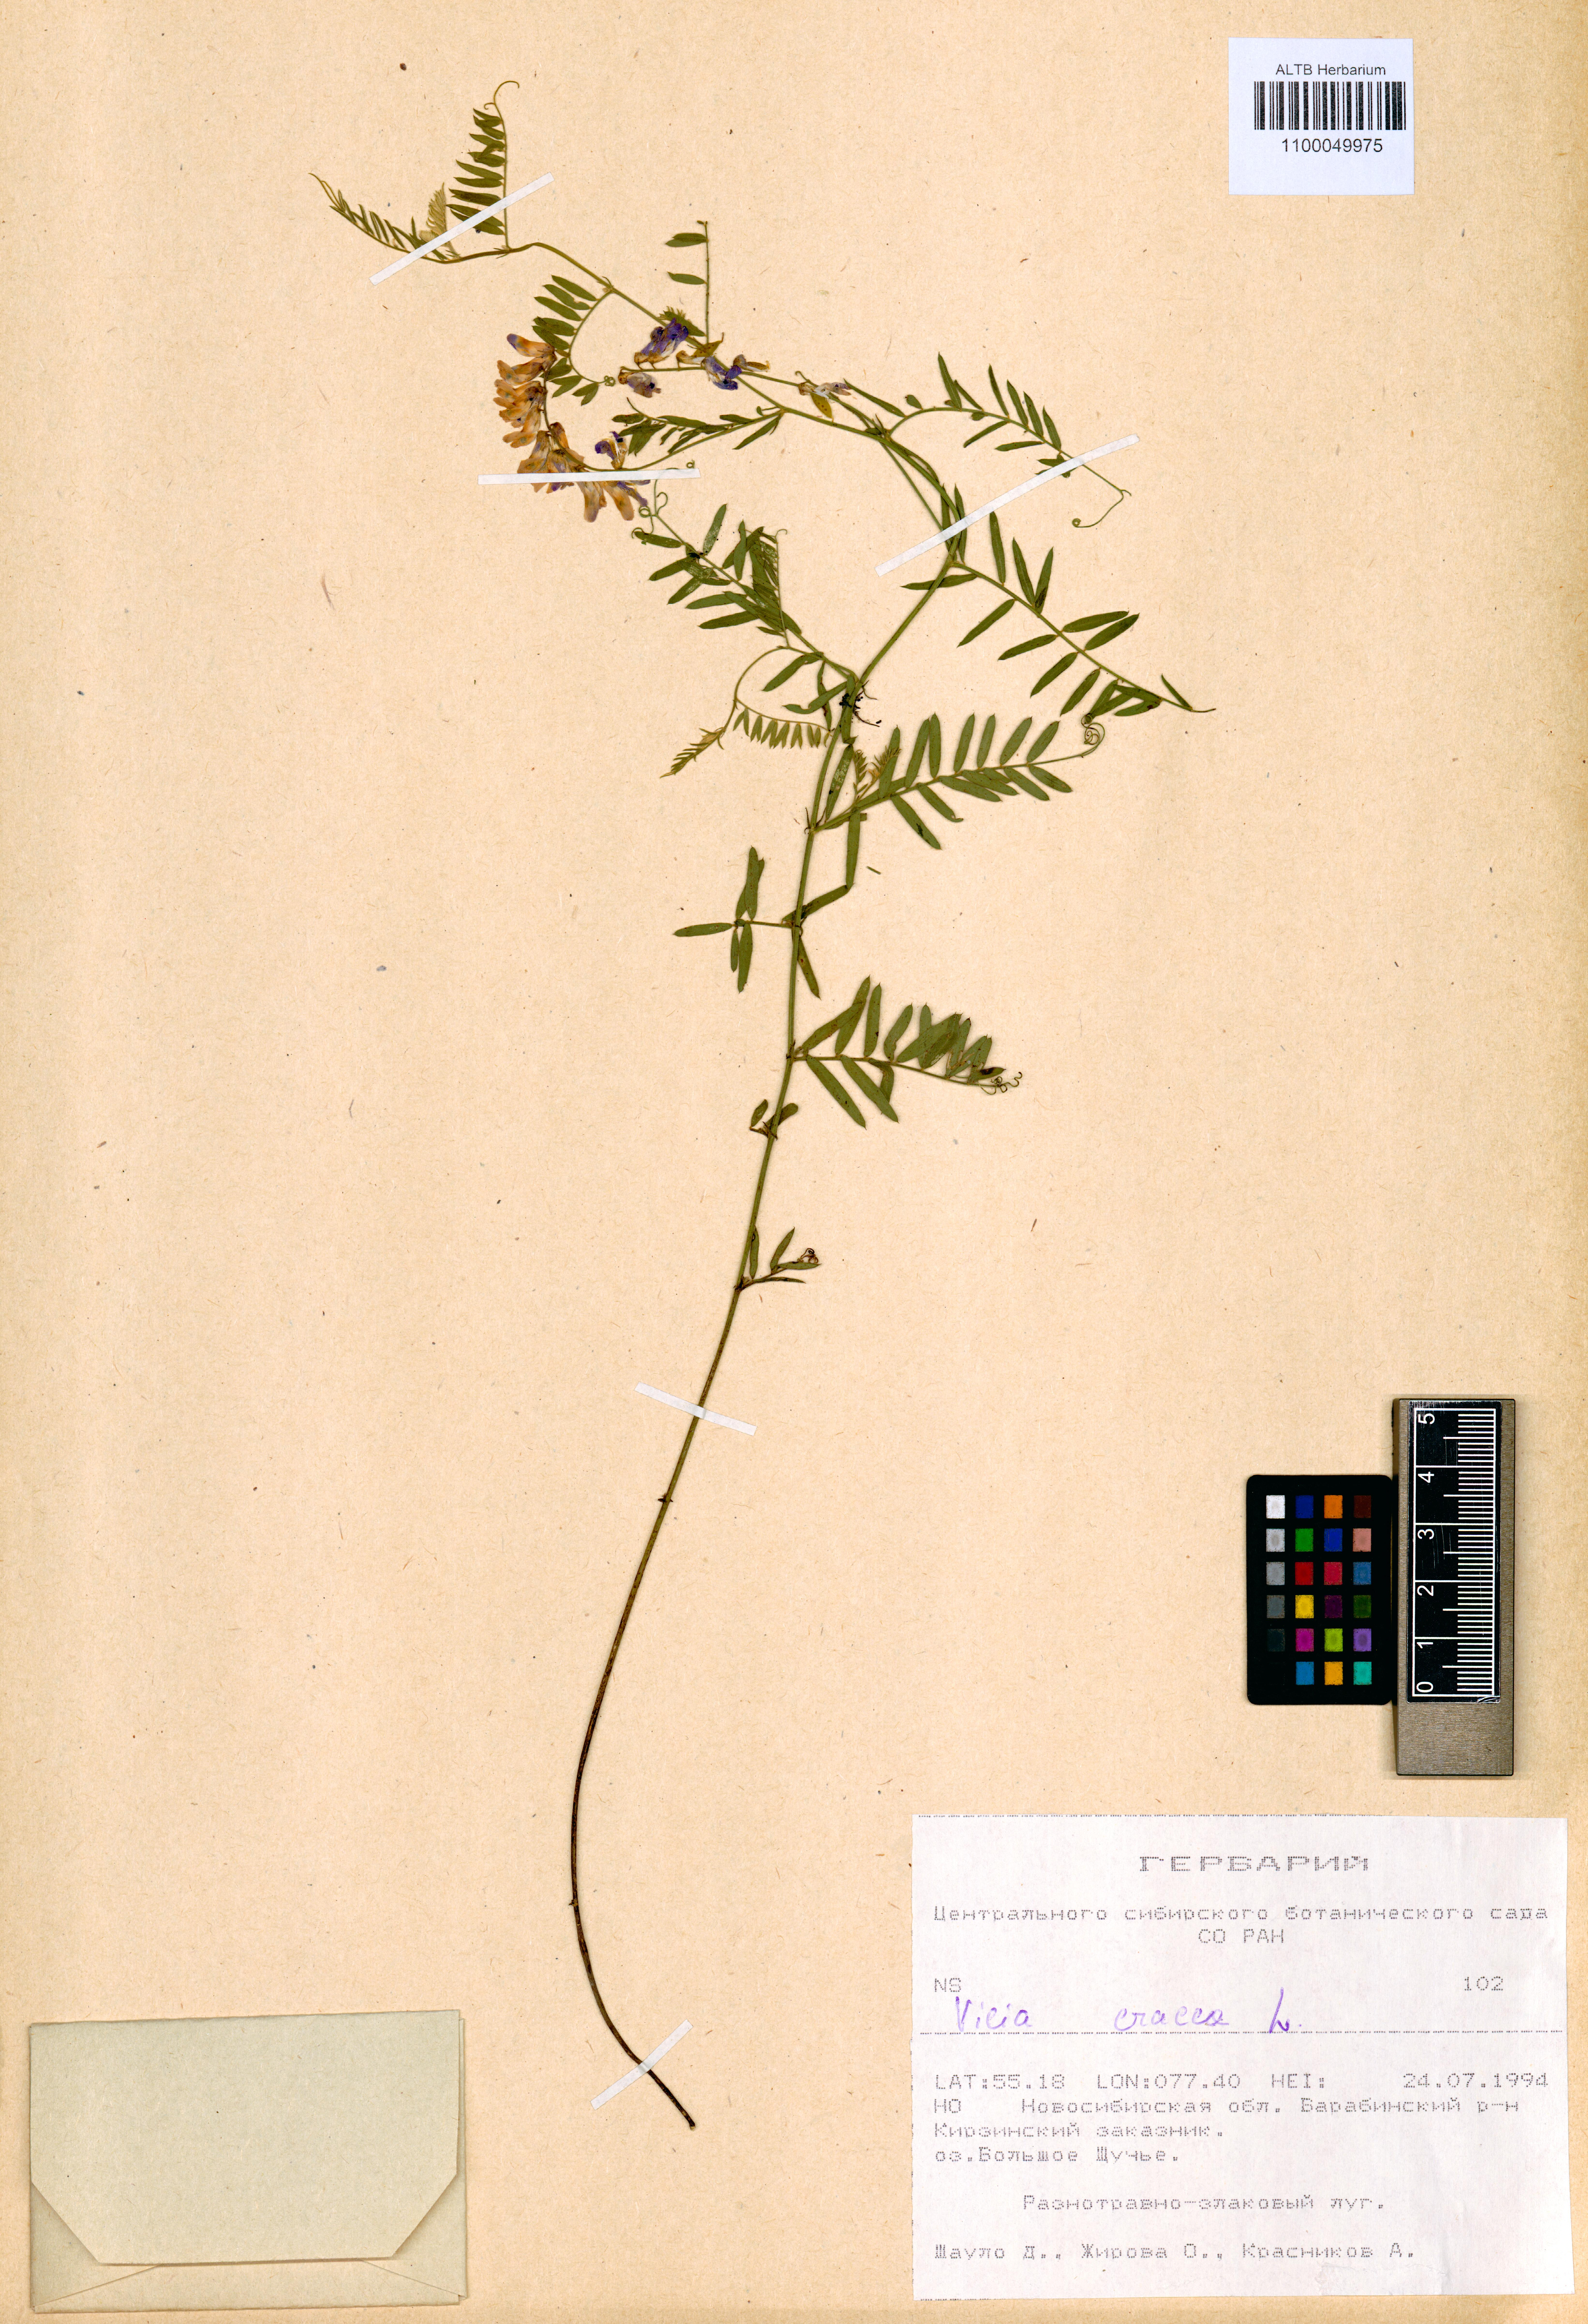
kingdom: Plantae
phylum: Tracheophyta
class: Magnoliopsida
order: Fabales
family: Fabaceae
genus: Vicia
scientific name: Vicia cracca
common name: Bird vetch
